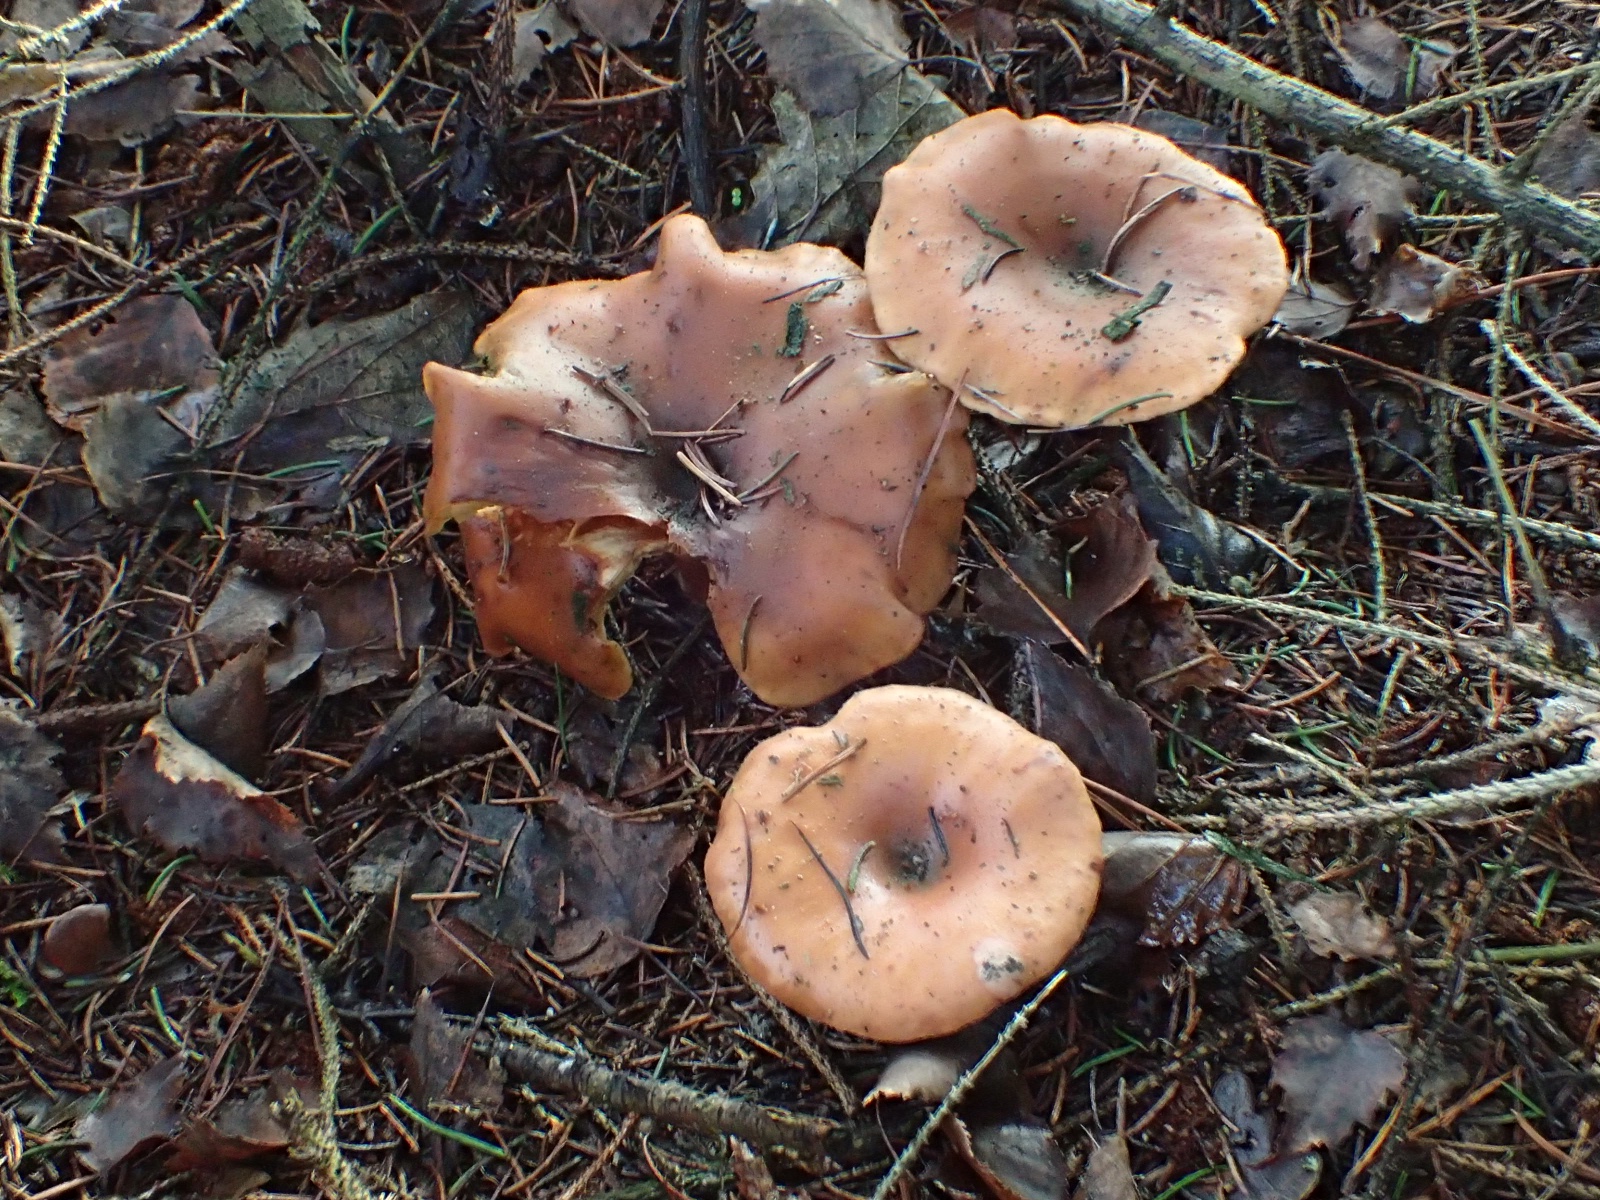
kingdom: Fungi
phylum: Basidiomycota
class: Agaricomycetes
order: Agaricales
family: Tricholomataceae
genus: Paralepista
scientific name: Paralepista flaccida
